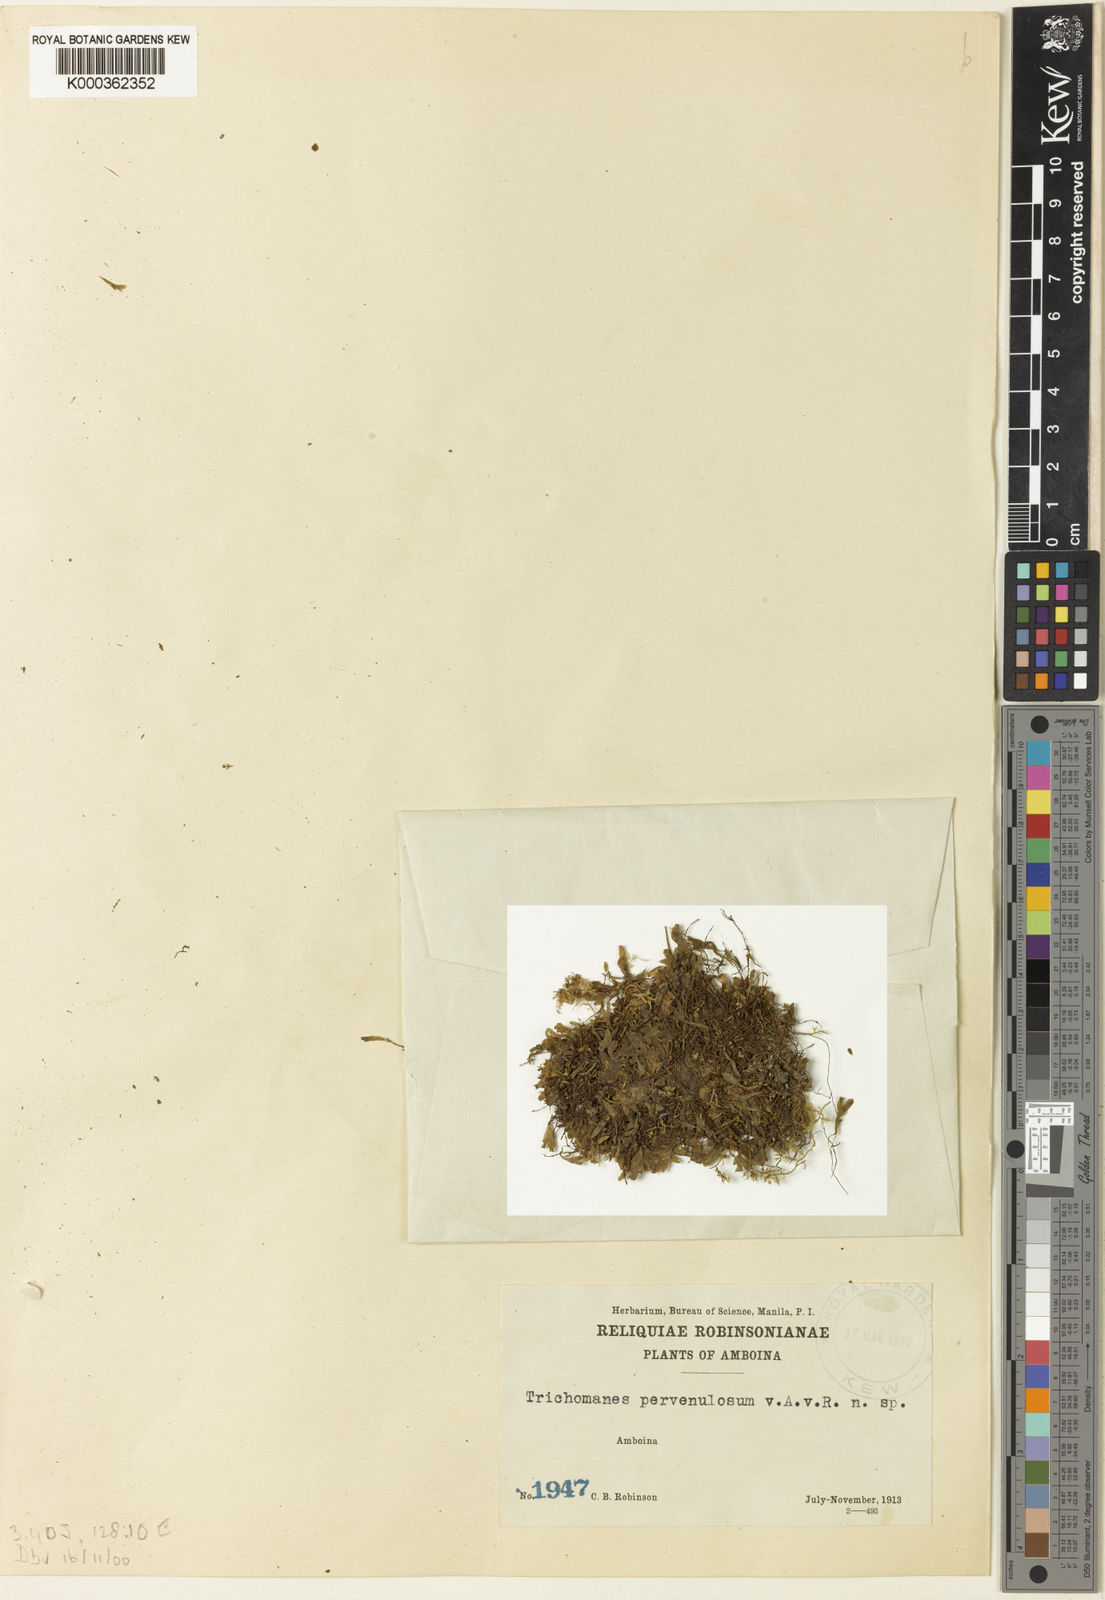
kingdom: Plantae
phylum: Tracheophyta
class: Polypodiopsida
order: Hymenophyllales
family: Hymenophyllaceae
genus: Crepidomanes
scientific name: Crepidomanes parvifolium
